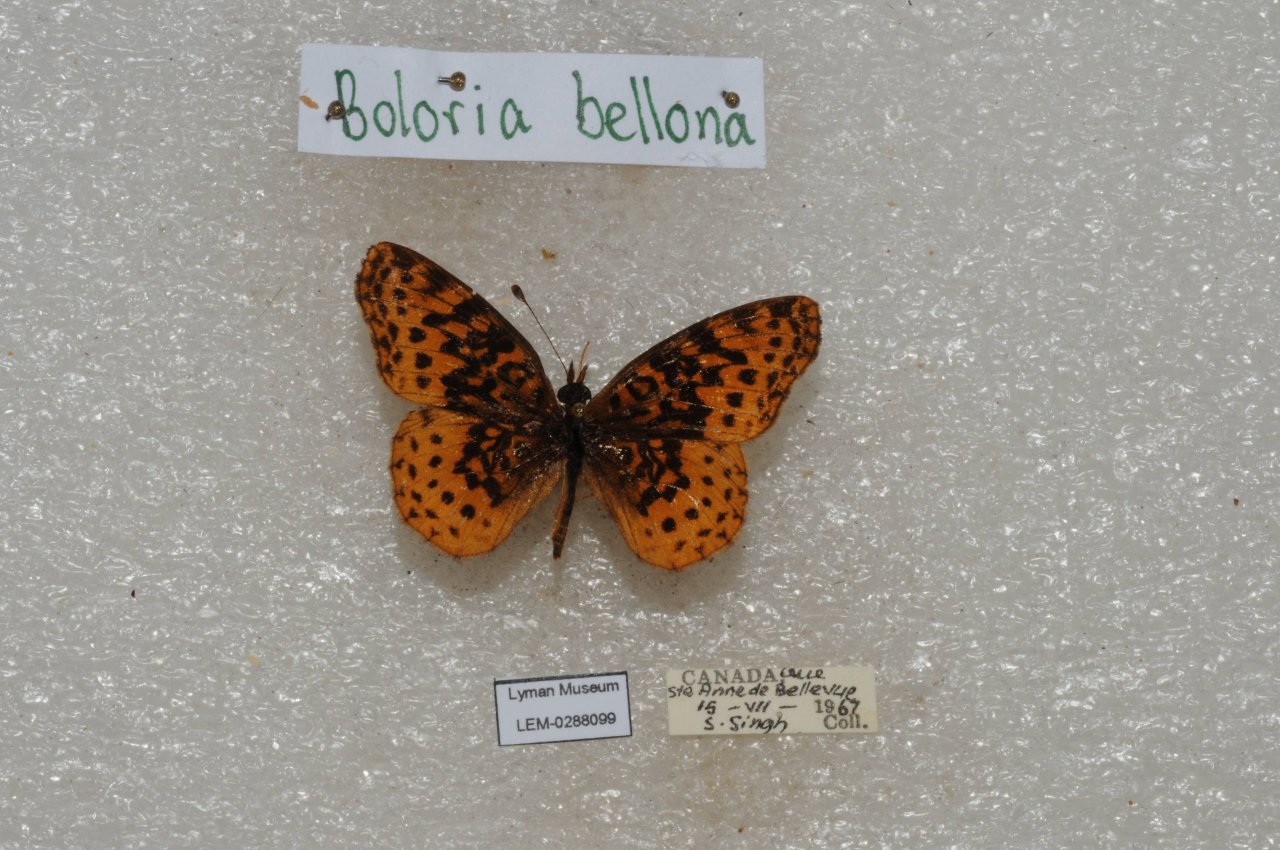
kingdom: Animalia
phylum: Arthropoda
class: Insecta
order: Lepidoptera
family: Nymphalidae
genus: Clossiana
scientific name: Clossiana toddi
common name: Meadow Fritillary
